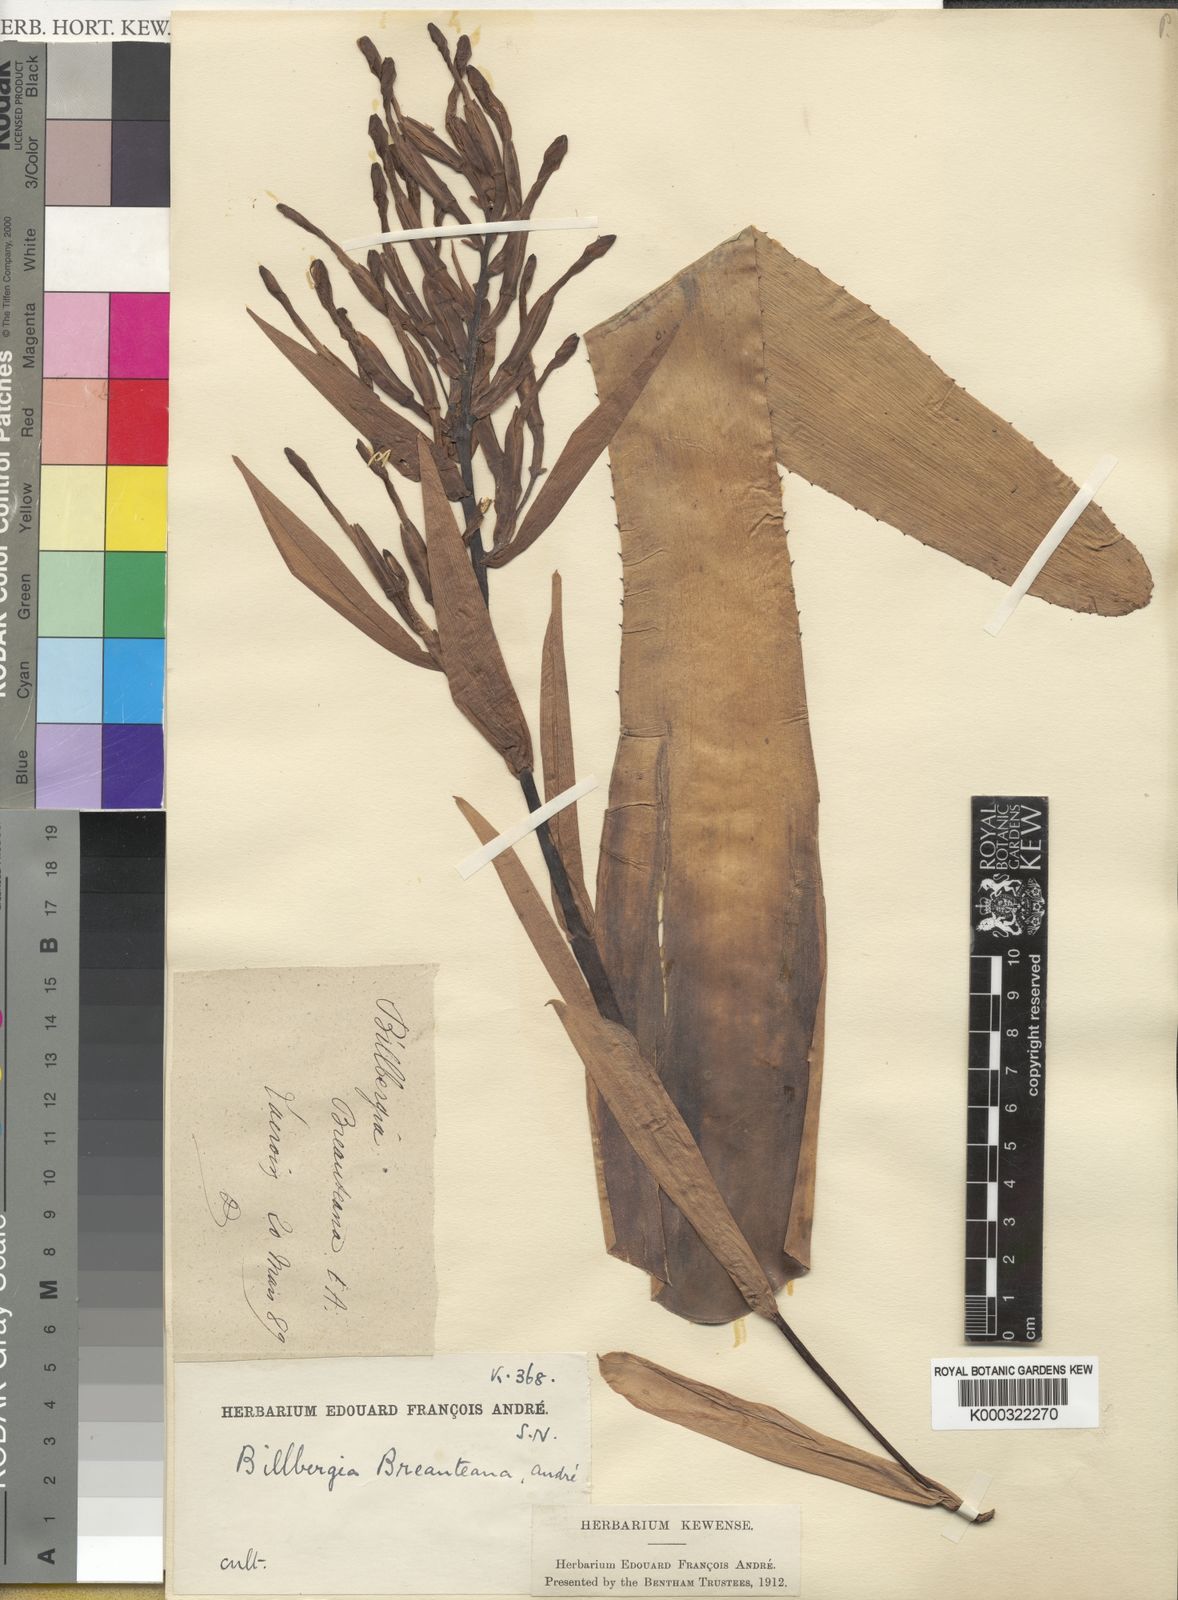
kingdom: Plantae
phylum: Tracheophyta
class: Liliopsida
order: Poales
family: Bromeliaceae
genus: Billbergia
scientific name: Billbergia joliboisii
